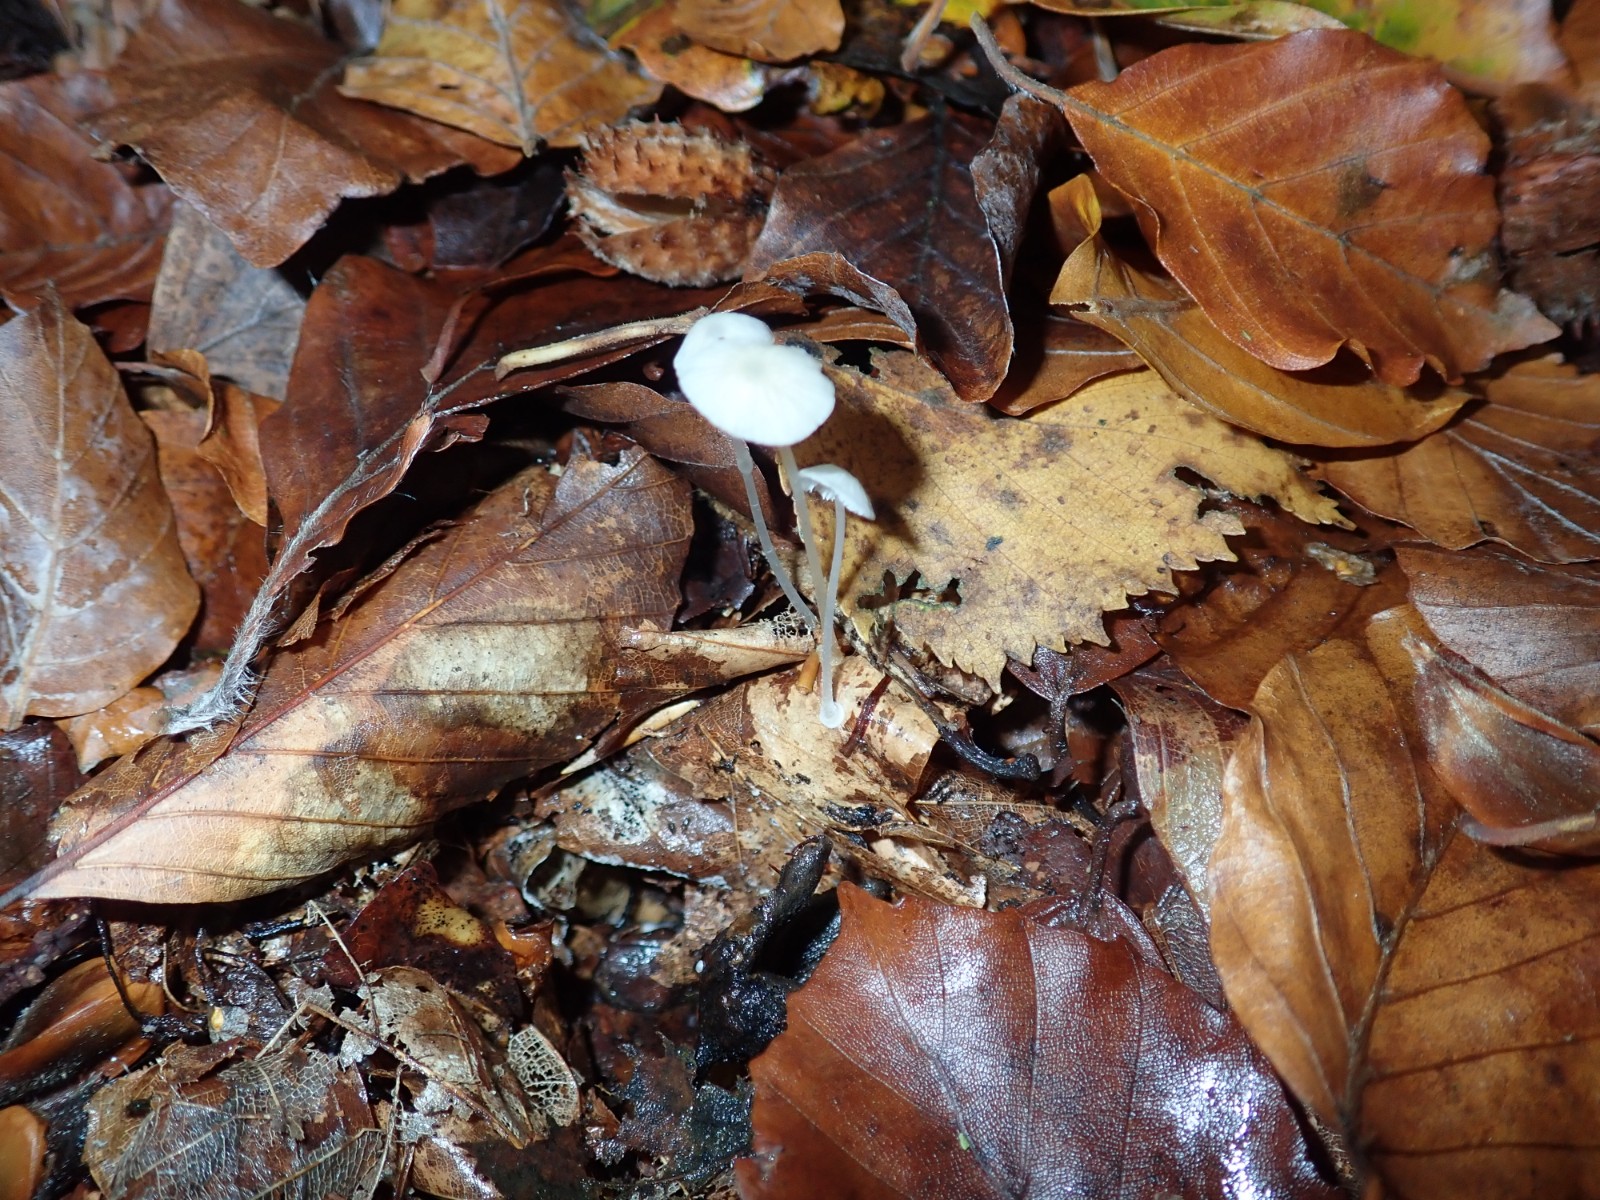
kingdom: Fungi
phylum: Basidiomycota
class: Agaricomycetes
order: Agaricales
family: Mycenaceae
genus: Mycena
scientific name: Mycena stylobates
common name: fureskivet huesvamp
